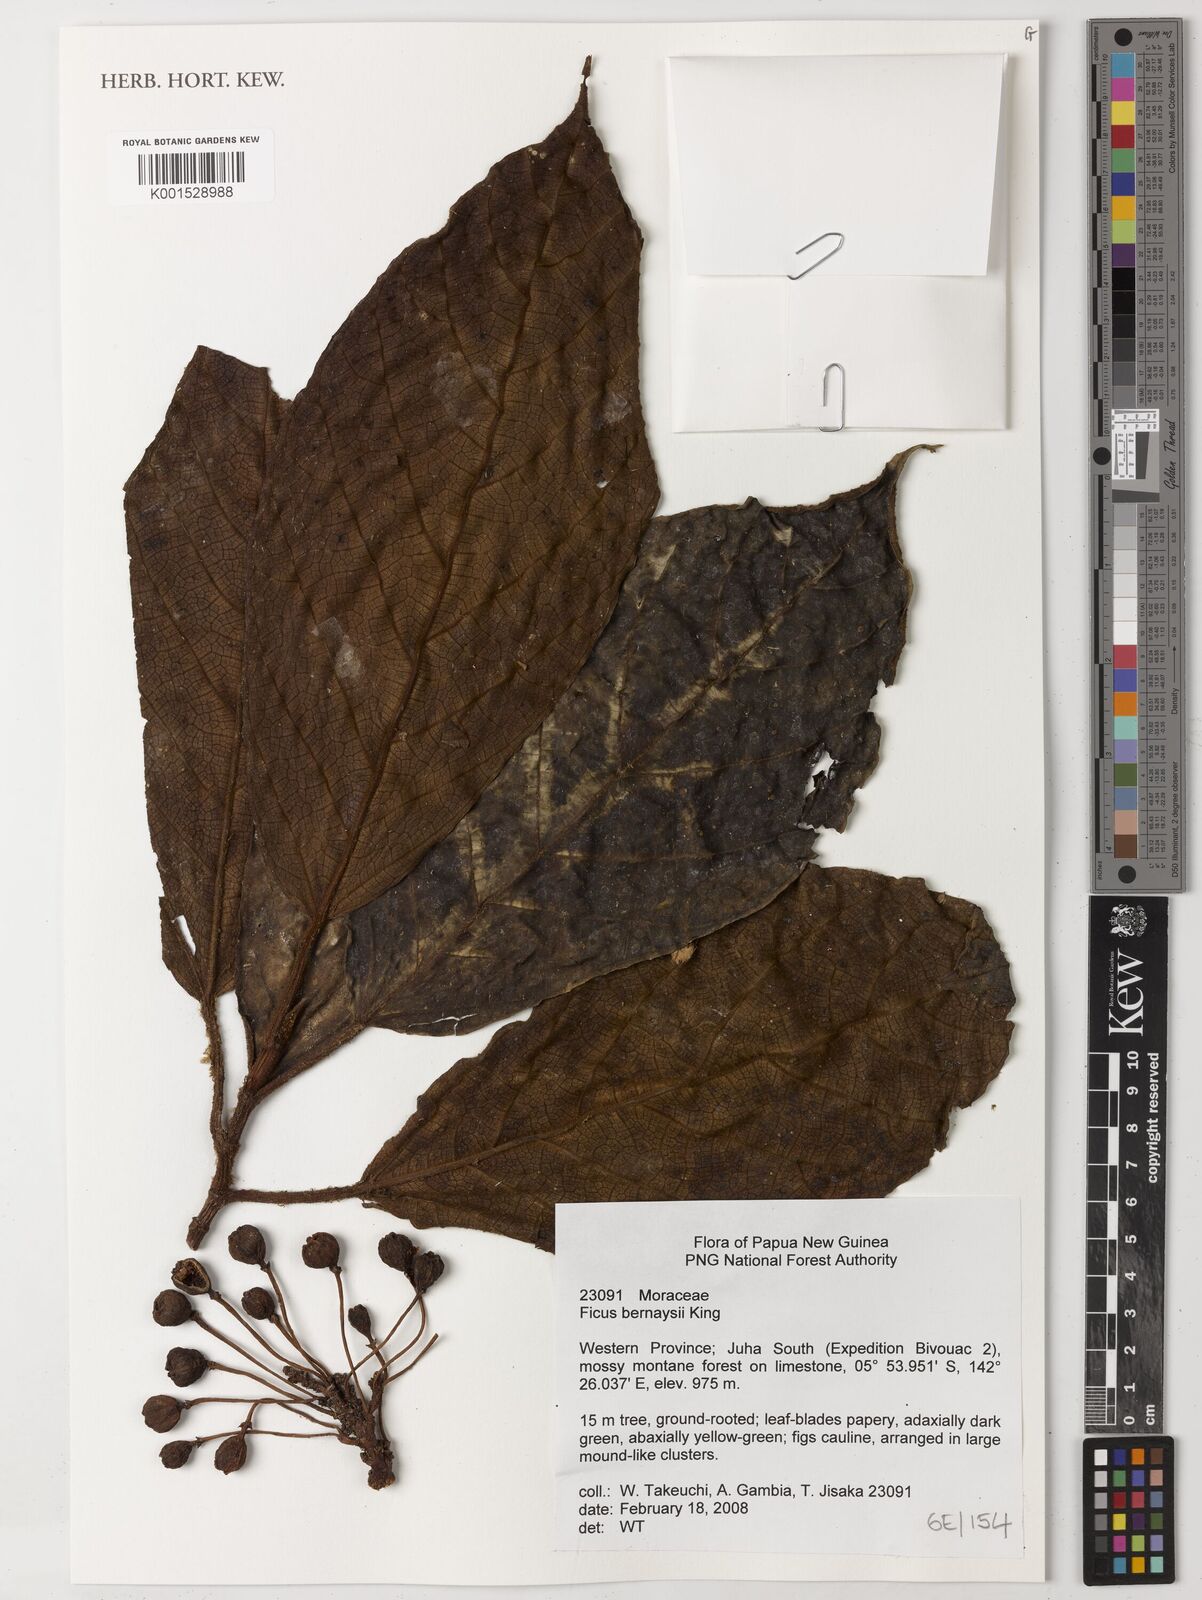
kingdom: Plantae
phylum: Tracheophyta
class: Magnoliopsida
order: Rosales
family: Moraceae
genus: Ficus
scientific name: Ficus bernaysii
